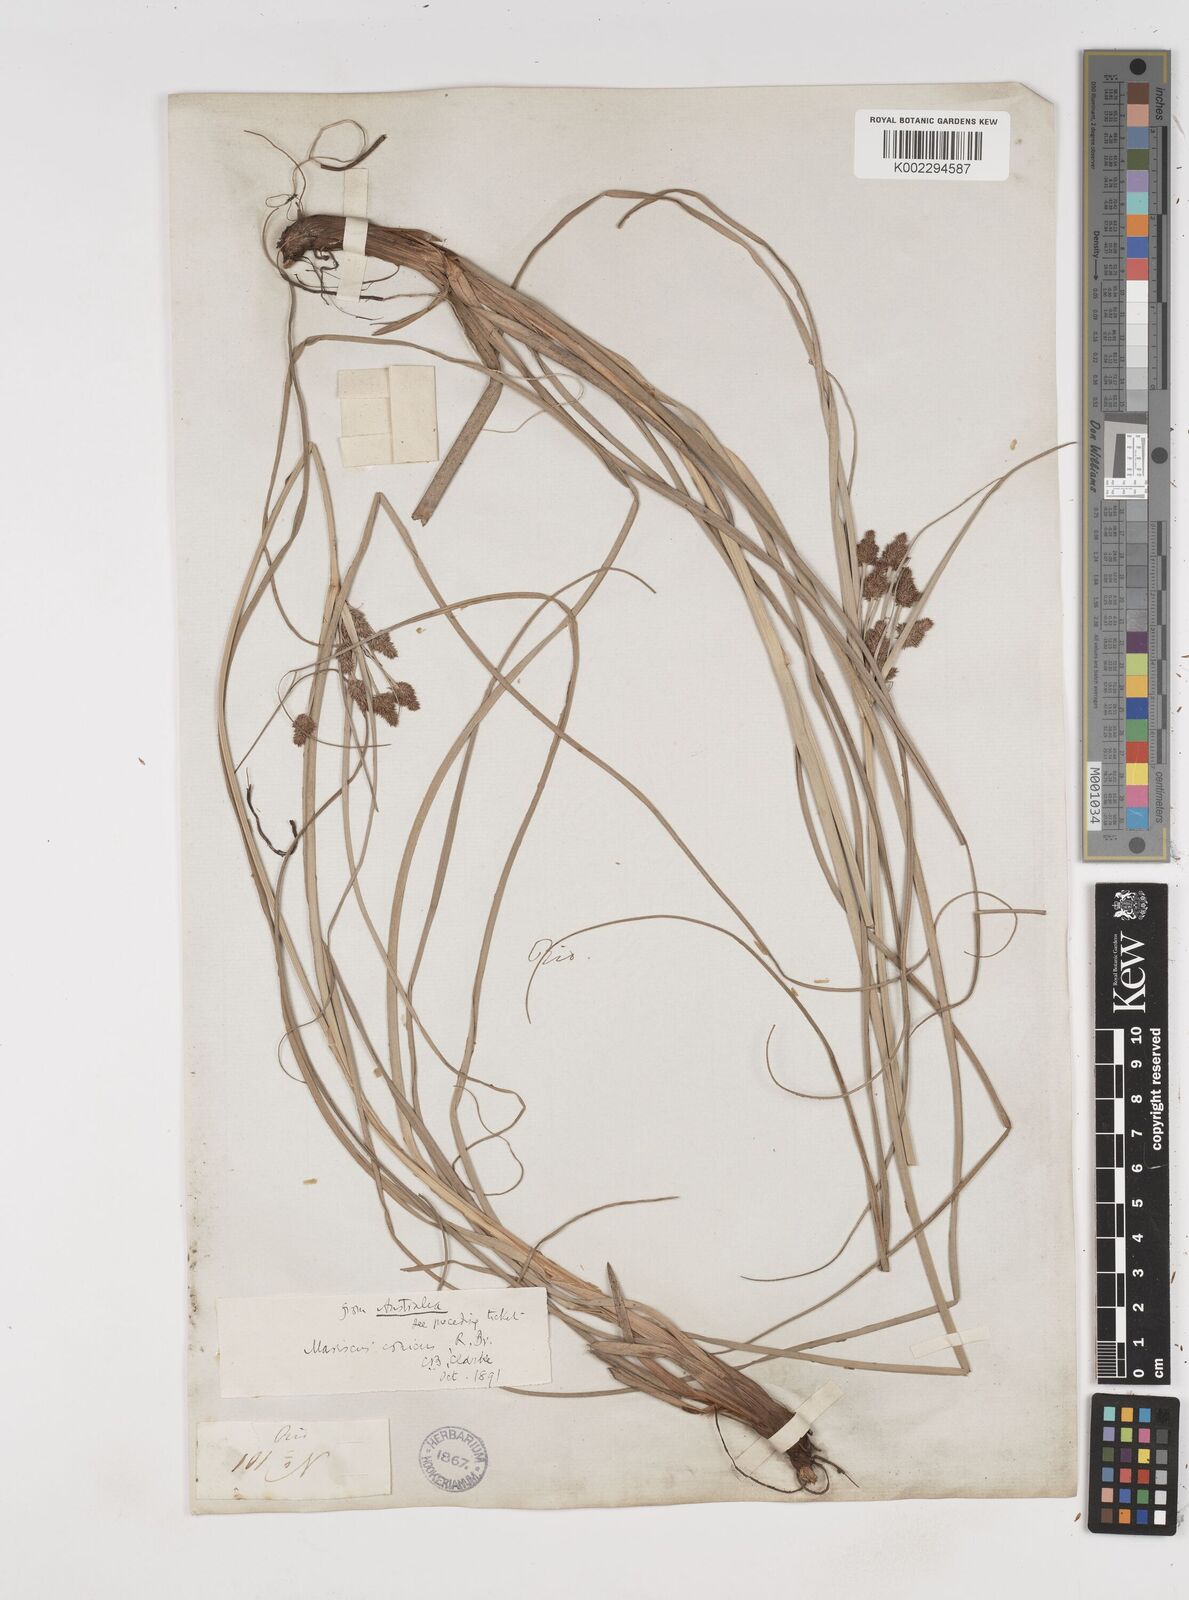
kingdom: Plantae
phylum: Tracheophyta
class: Liliopsida
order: Poales
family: Cyperaceae
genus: Cyperus
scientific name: Cyperus conicus
